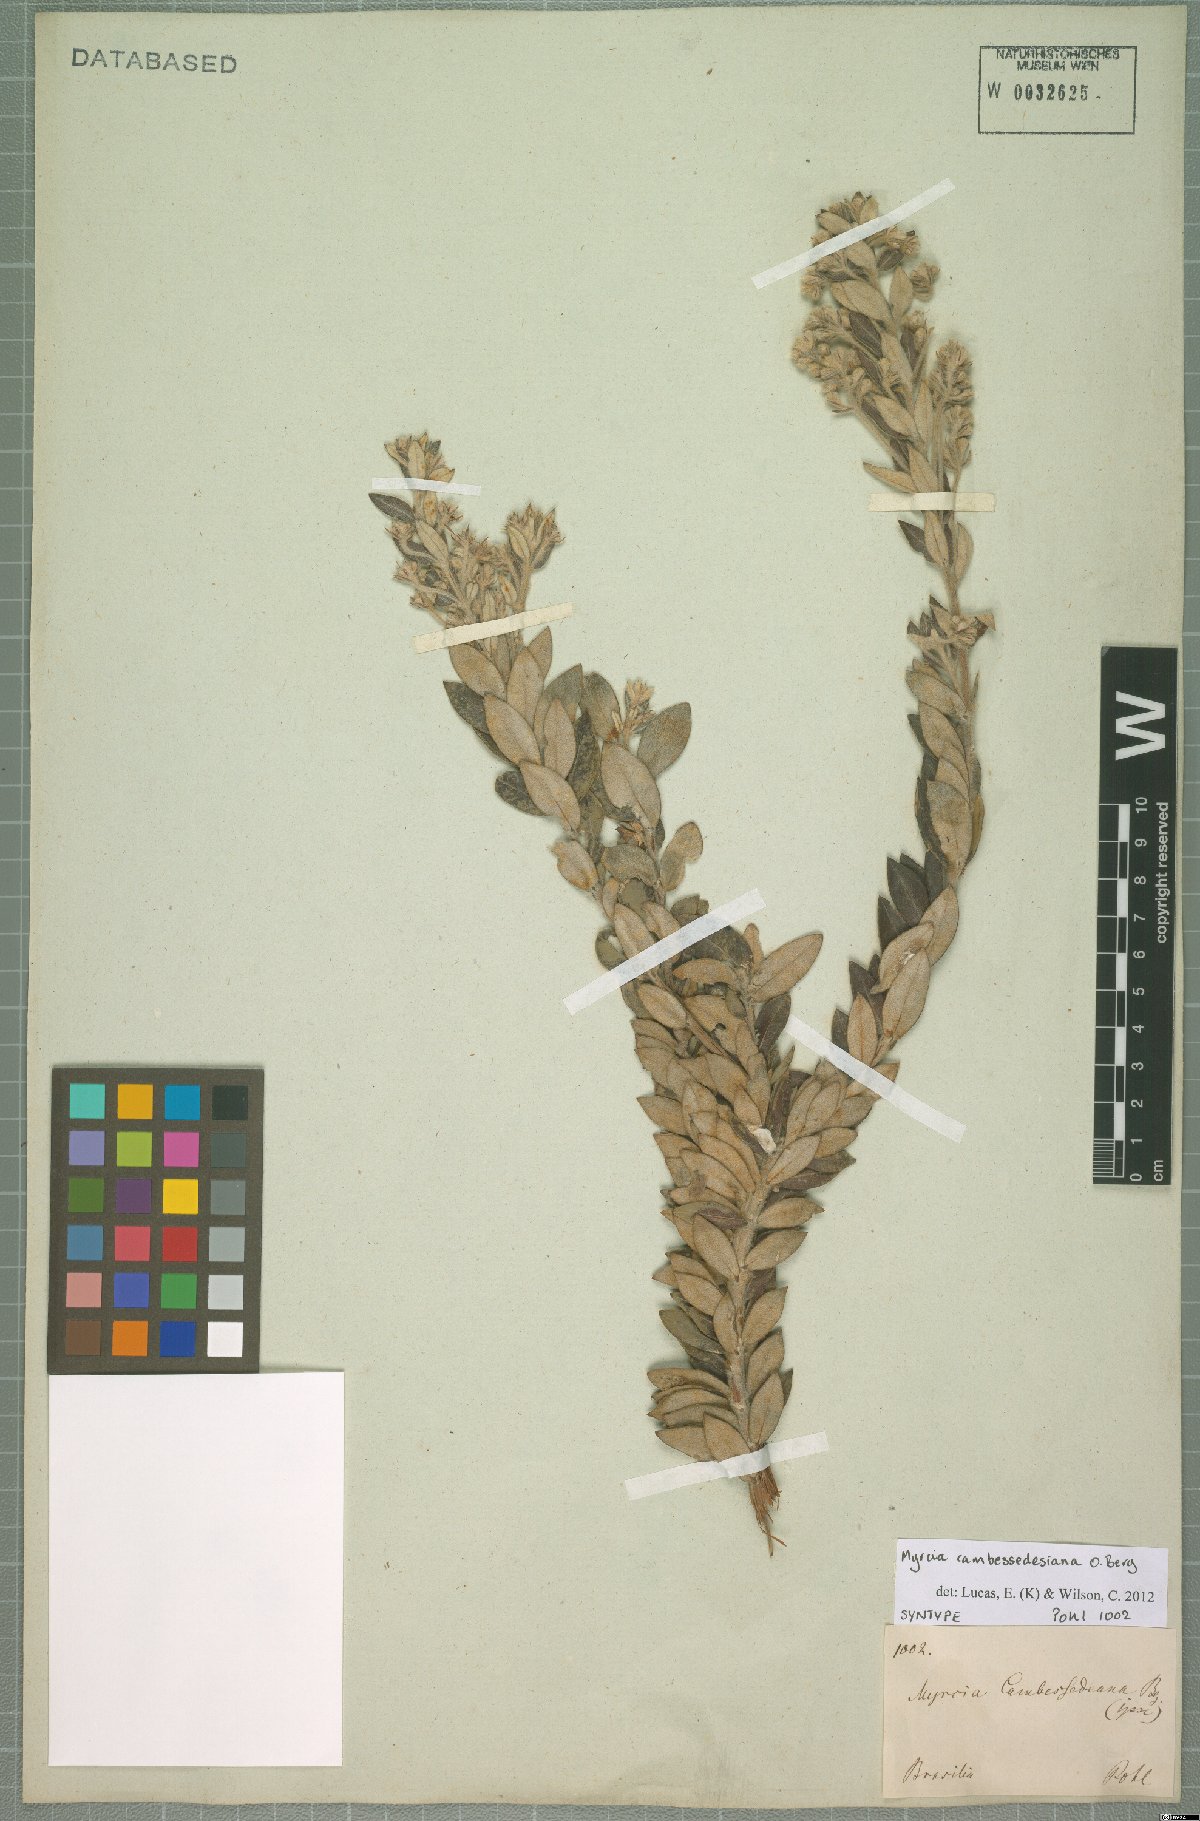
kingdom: Plantae
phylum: Tracheophyta
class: Magnoliopsida
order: Myrtales
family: Myrtaceae
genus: Myrcia
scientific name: Myrcia cambessedesiana
